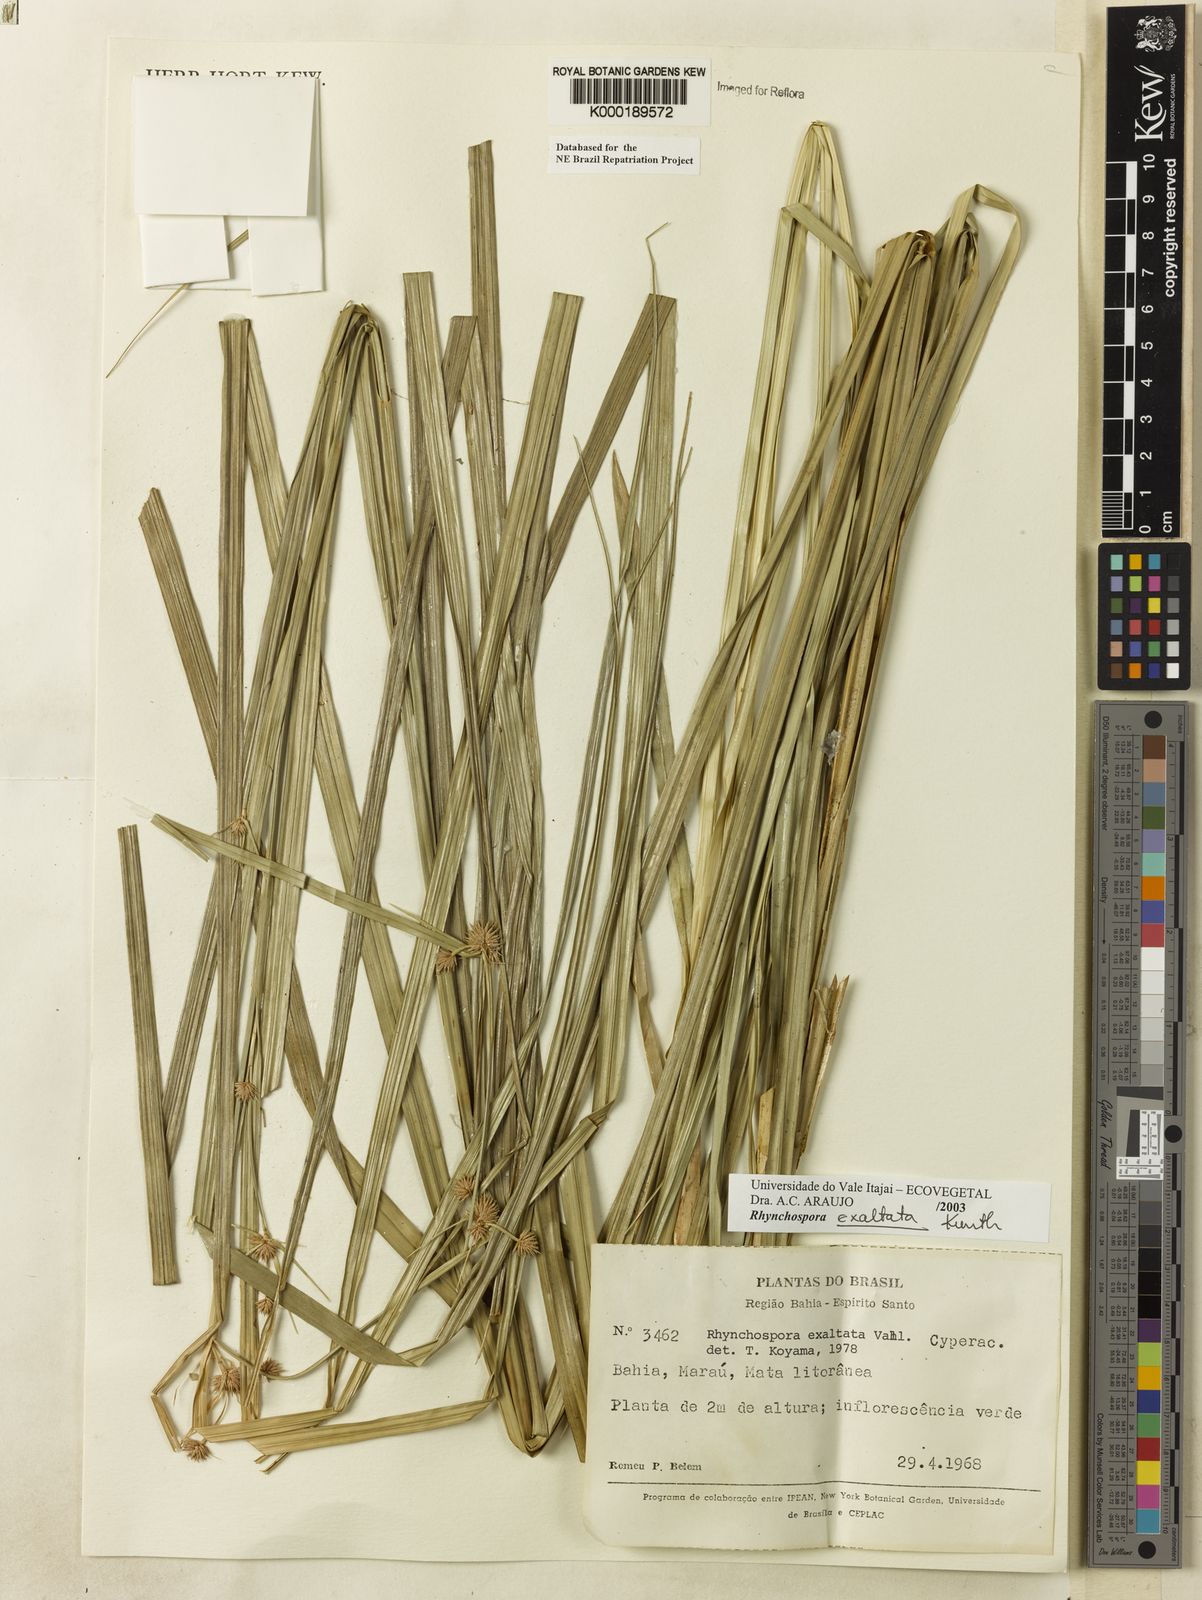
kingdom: Plantae
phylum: Tracheophyta
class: Liliopsida
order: Poales
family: Cyperaceae
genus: Rhynchospora
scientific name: Rhynchospora exaltata
